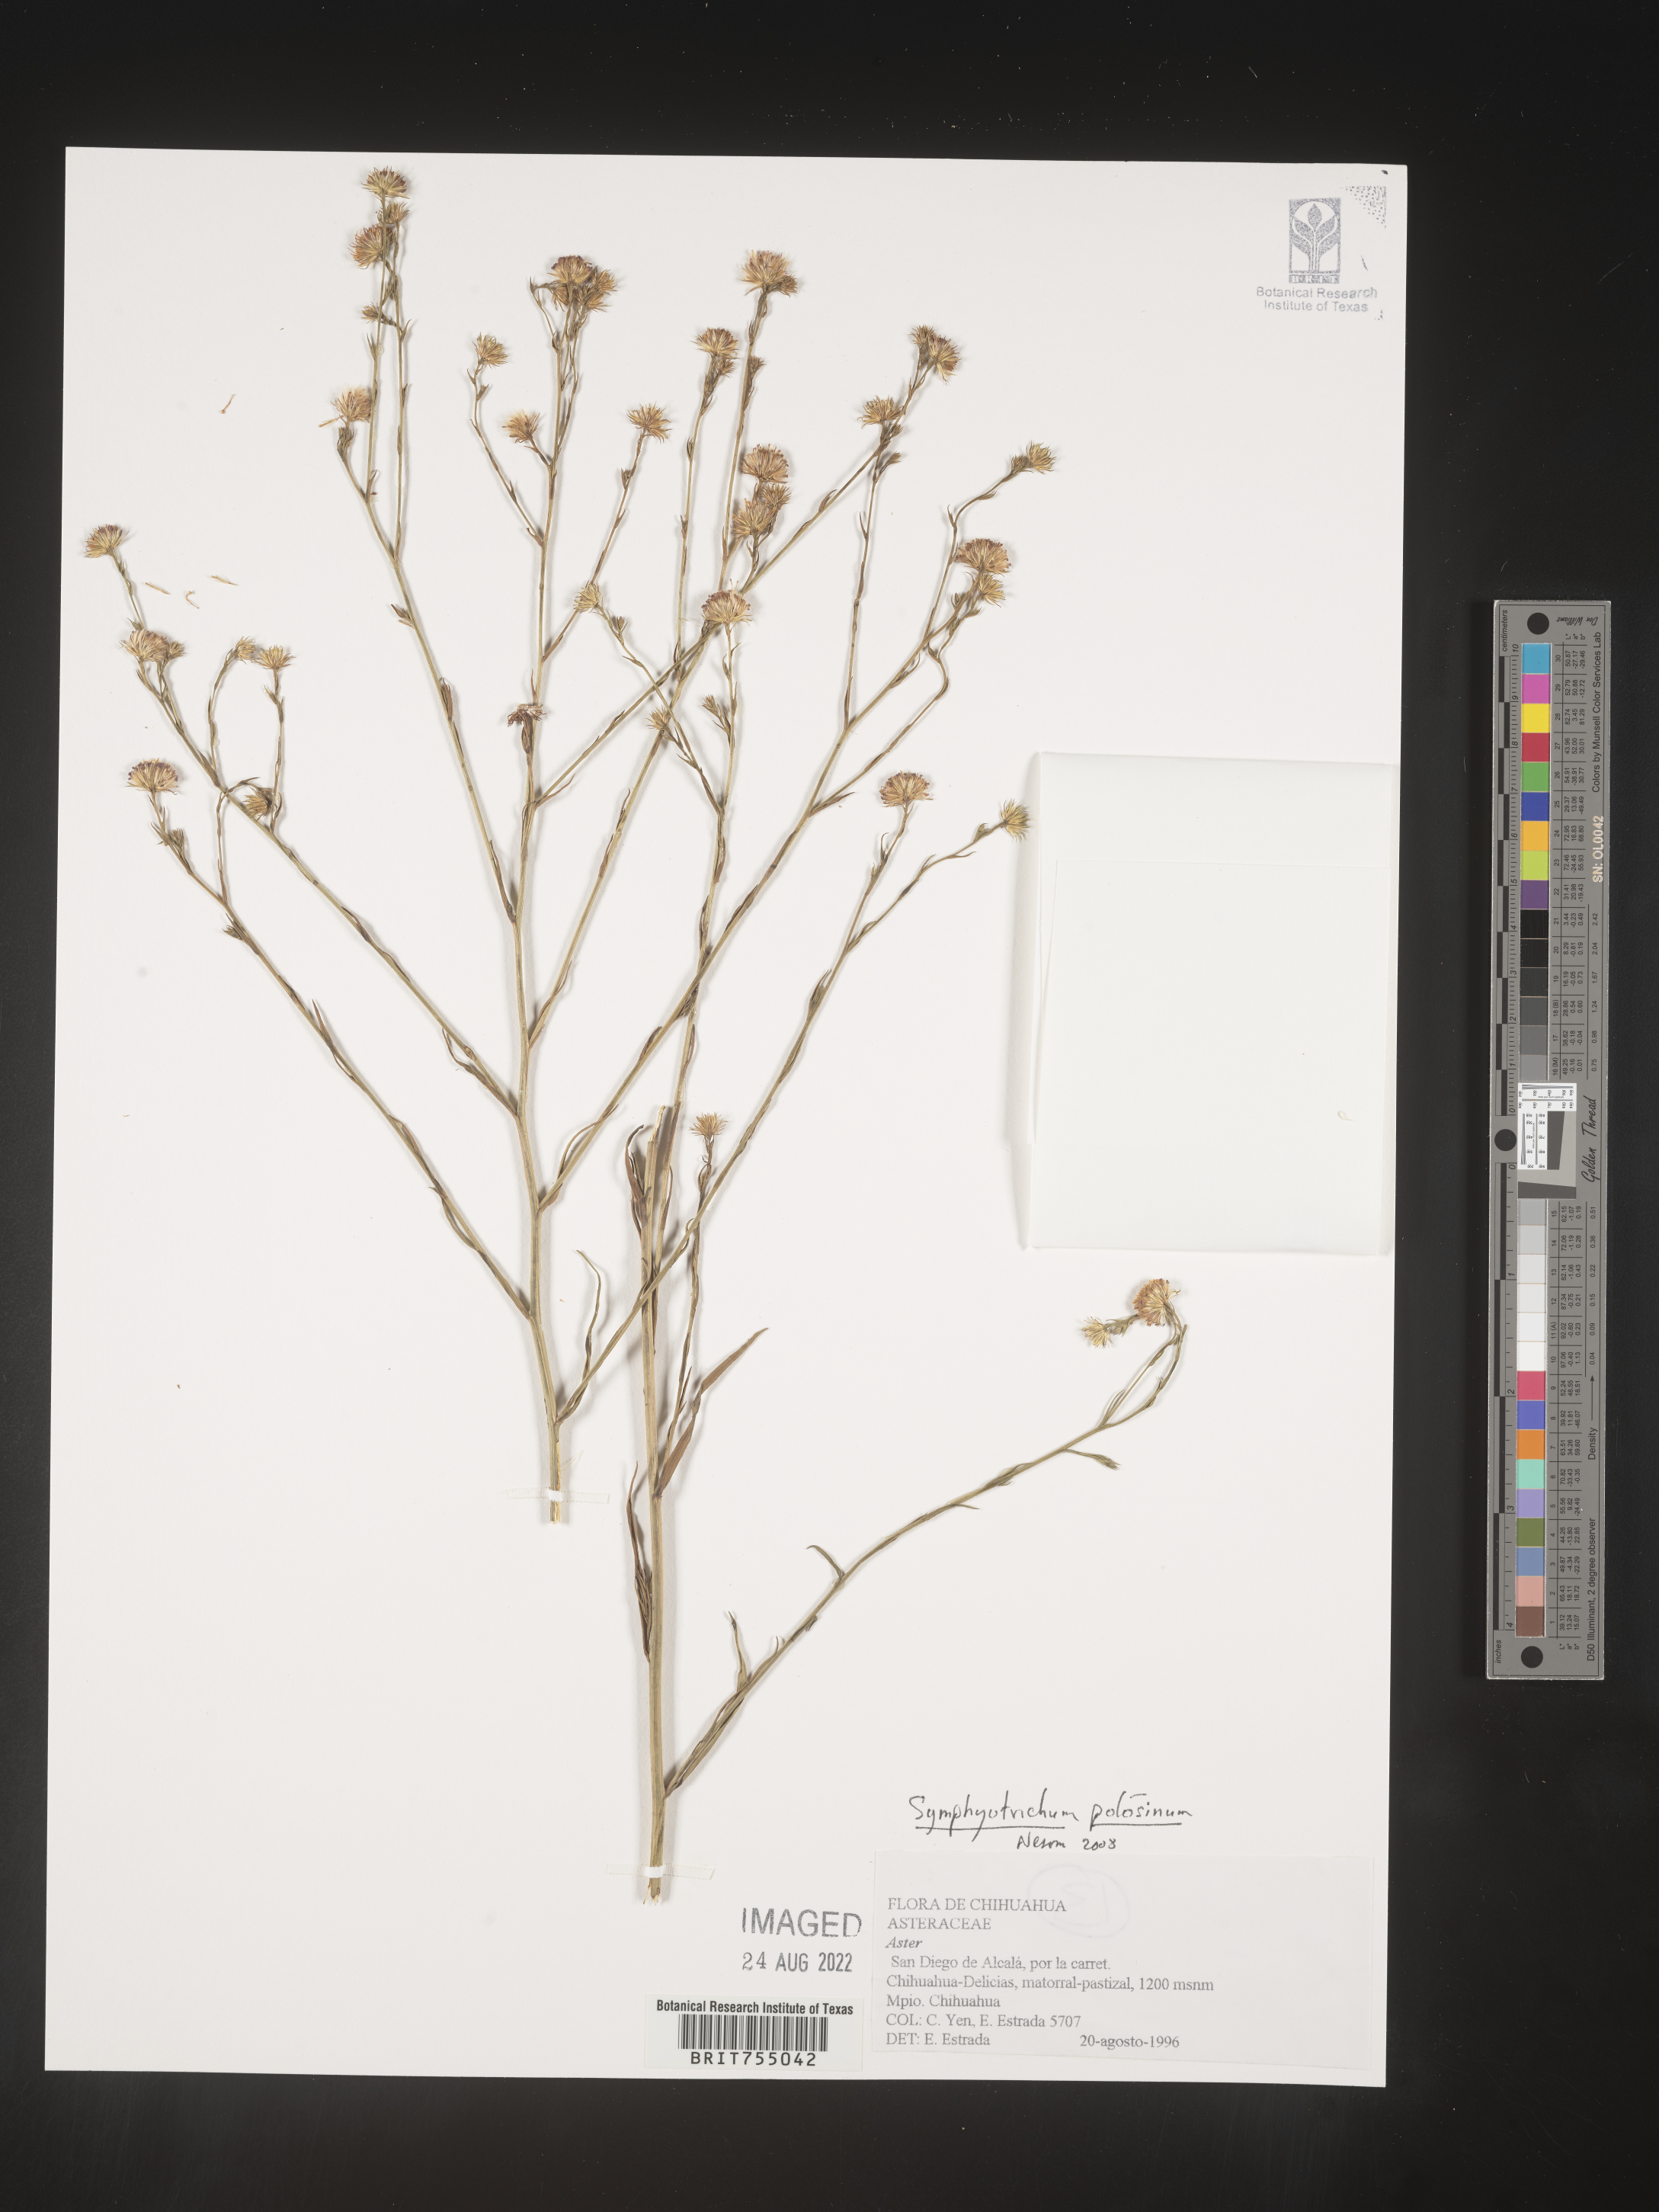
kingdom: Plantae
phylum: Tracheophyta
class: Magnoliopsida
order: Asterales
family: Asteraceae
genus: Symphyotrichum
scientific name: Symphyotrichum potosinum
